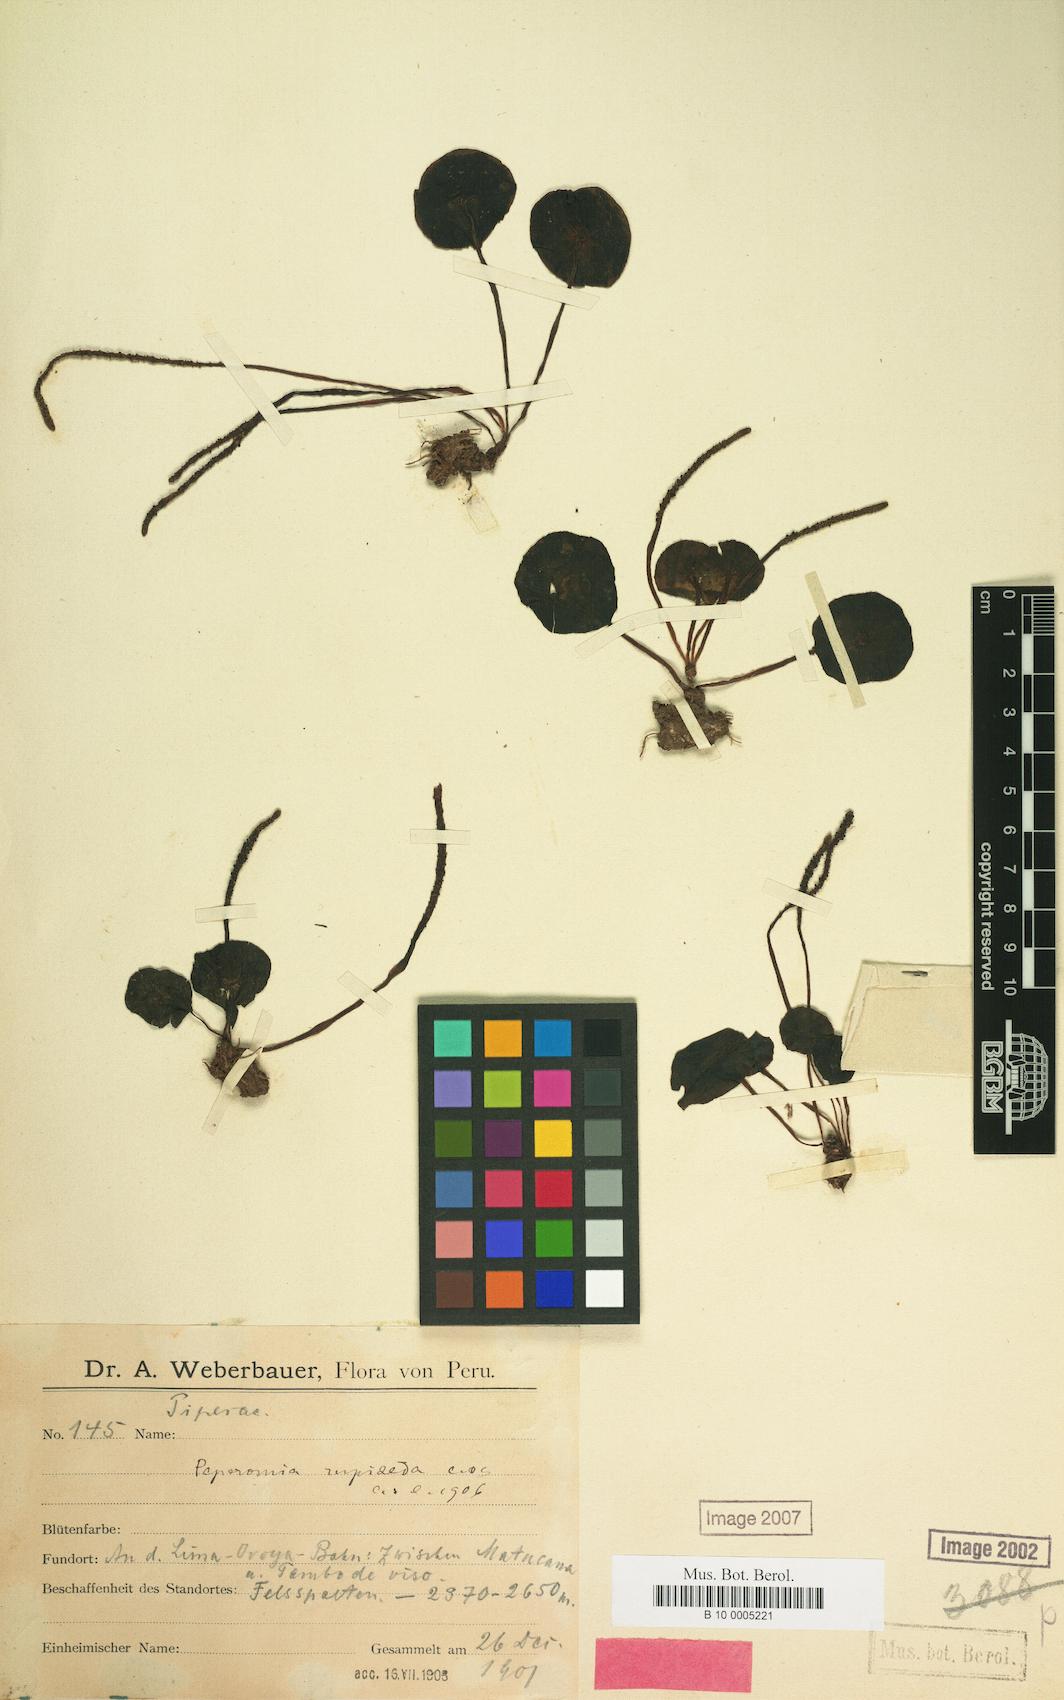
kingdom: Plantae
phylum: Tracheophyta
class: Magnoliopsida
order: Piperales
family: Piperaceae
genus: Peperomia
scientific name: Peperomia rupiceda
